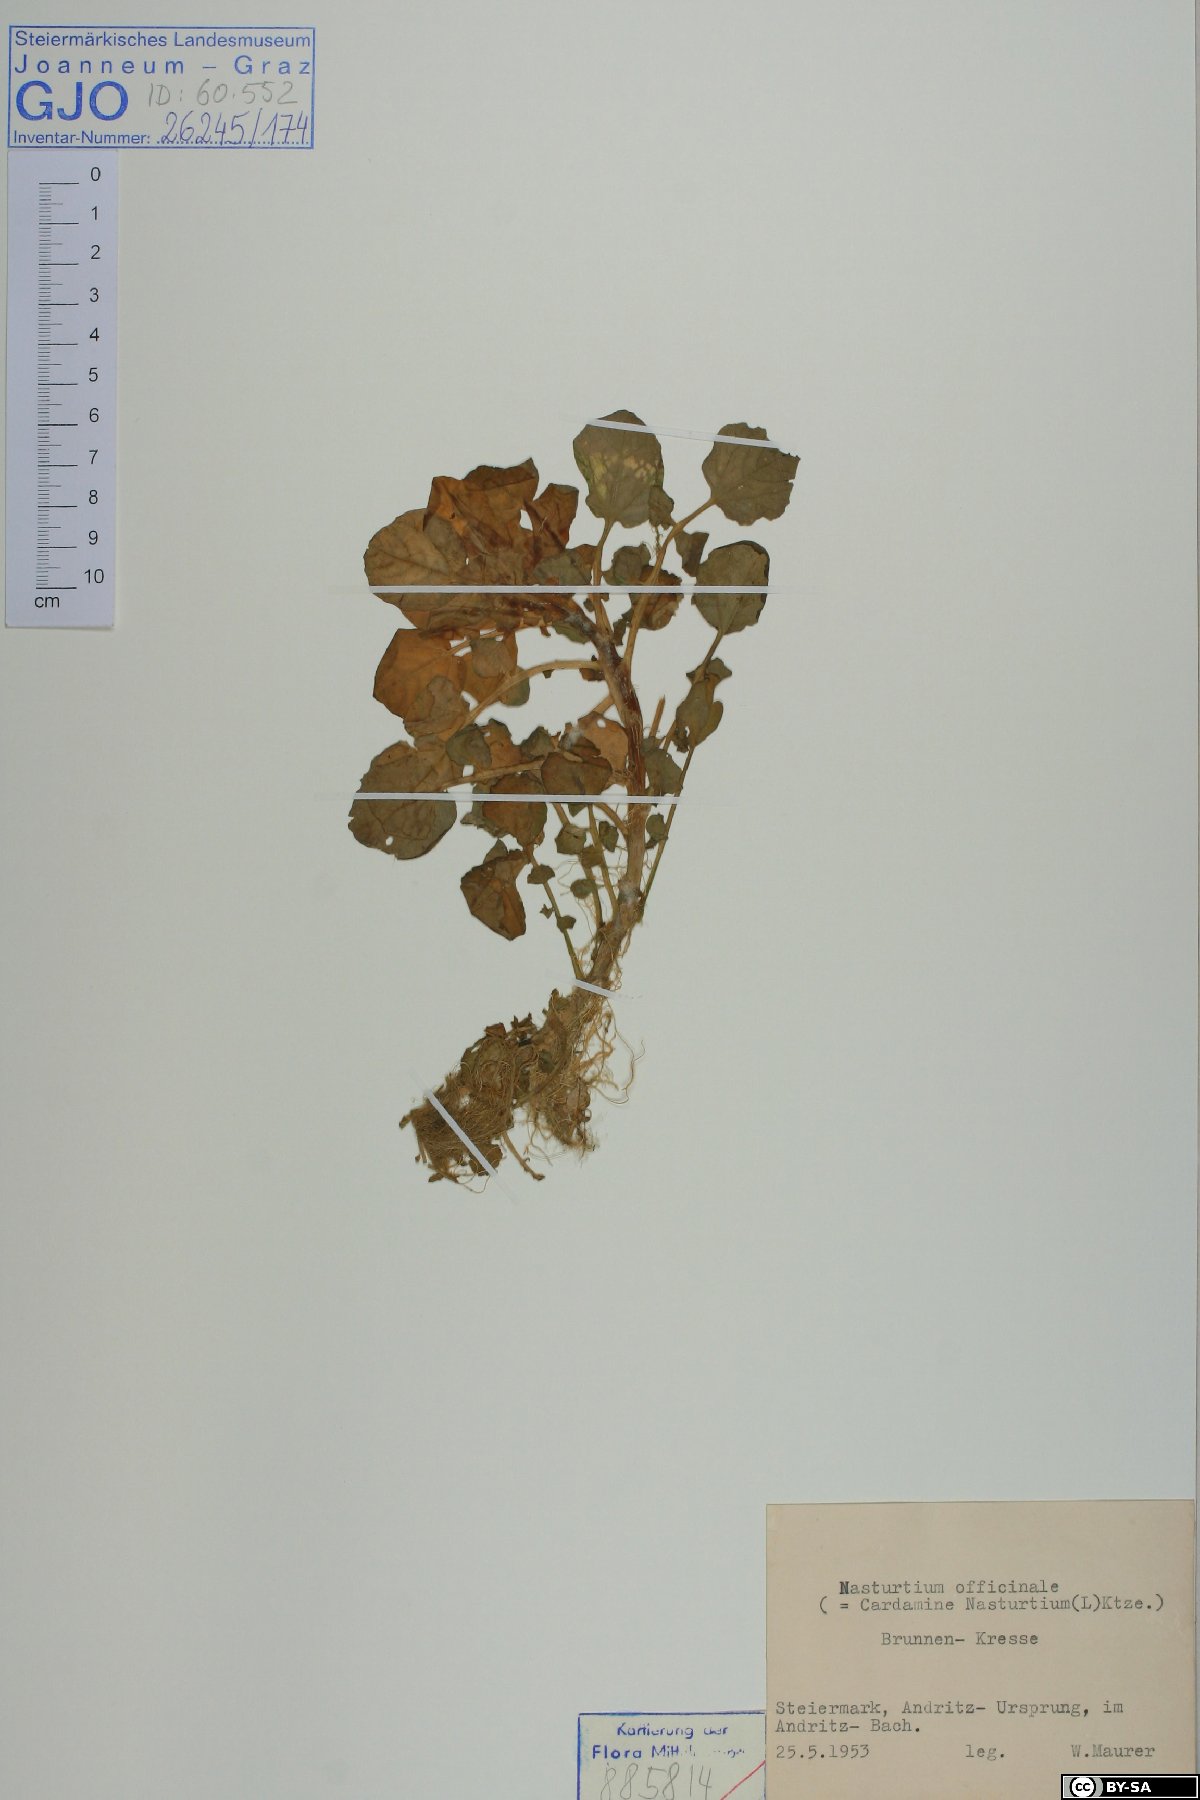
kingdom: Plantae
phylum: Tracheophyta
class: Magnoliopsida
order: Brassicales
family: Brassicaceae
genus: Nasturtium
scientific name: Nasturtium officinale
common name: Watercress
